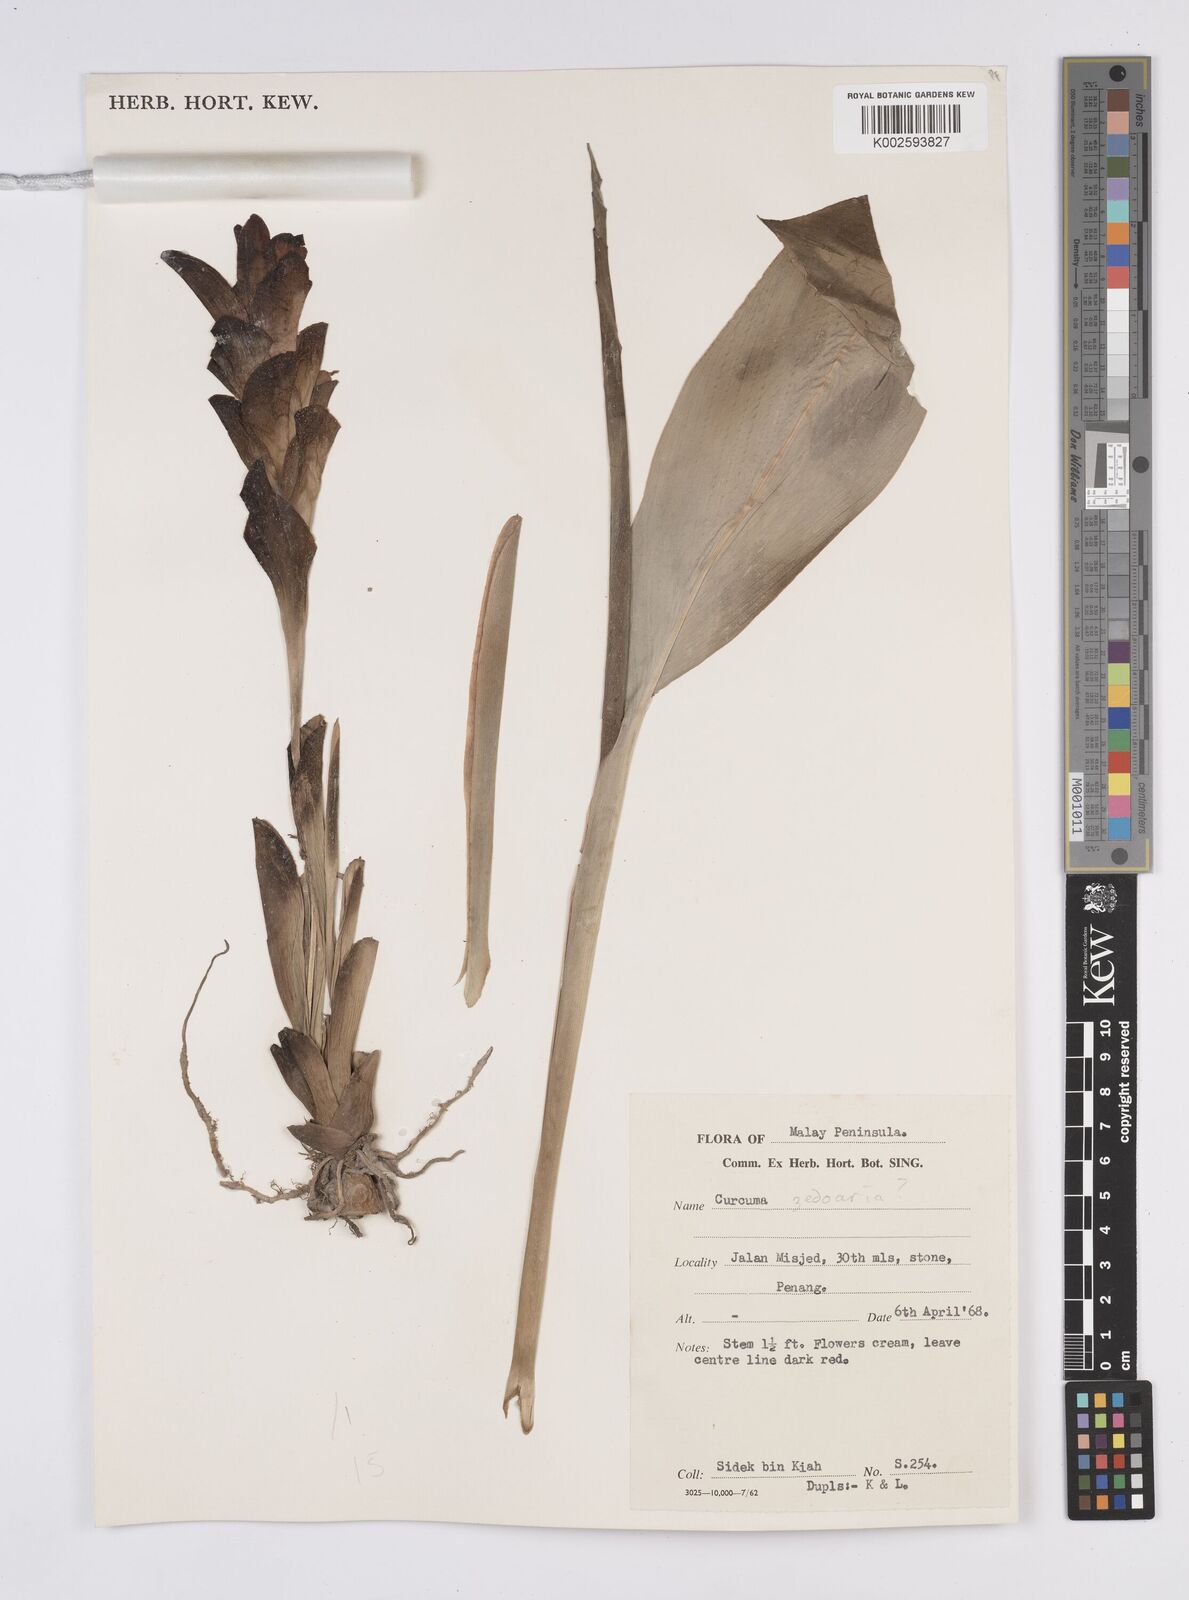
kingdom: Plantae
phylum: Tracheophyta
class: Liliopsida
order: Zingiberales
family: Zingiberaceae
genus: Curcuma
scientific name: Curcuma aromatica
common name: Wild turmeric
